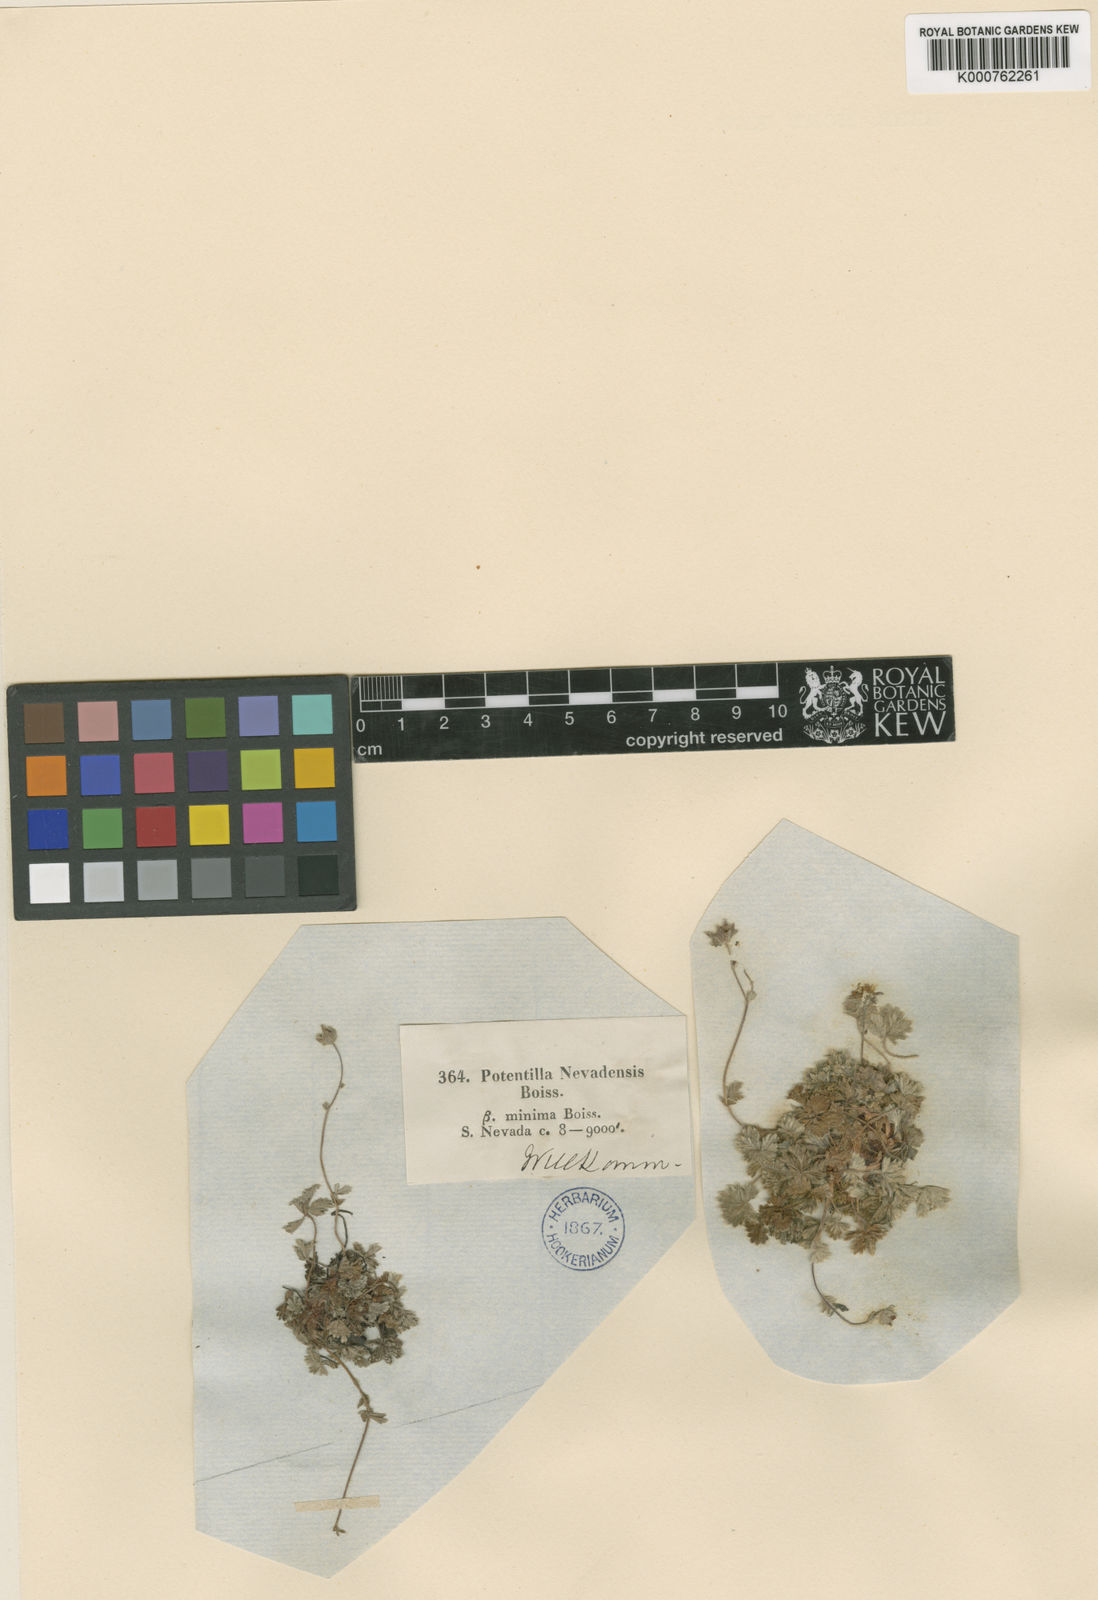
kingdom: Plantae
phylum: Tracheophyta
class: Magnoliopsida
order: Rosales
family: Rosaceae
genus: Potentilla
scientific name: Potentilla nevadensis
